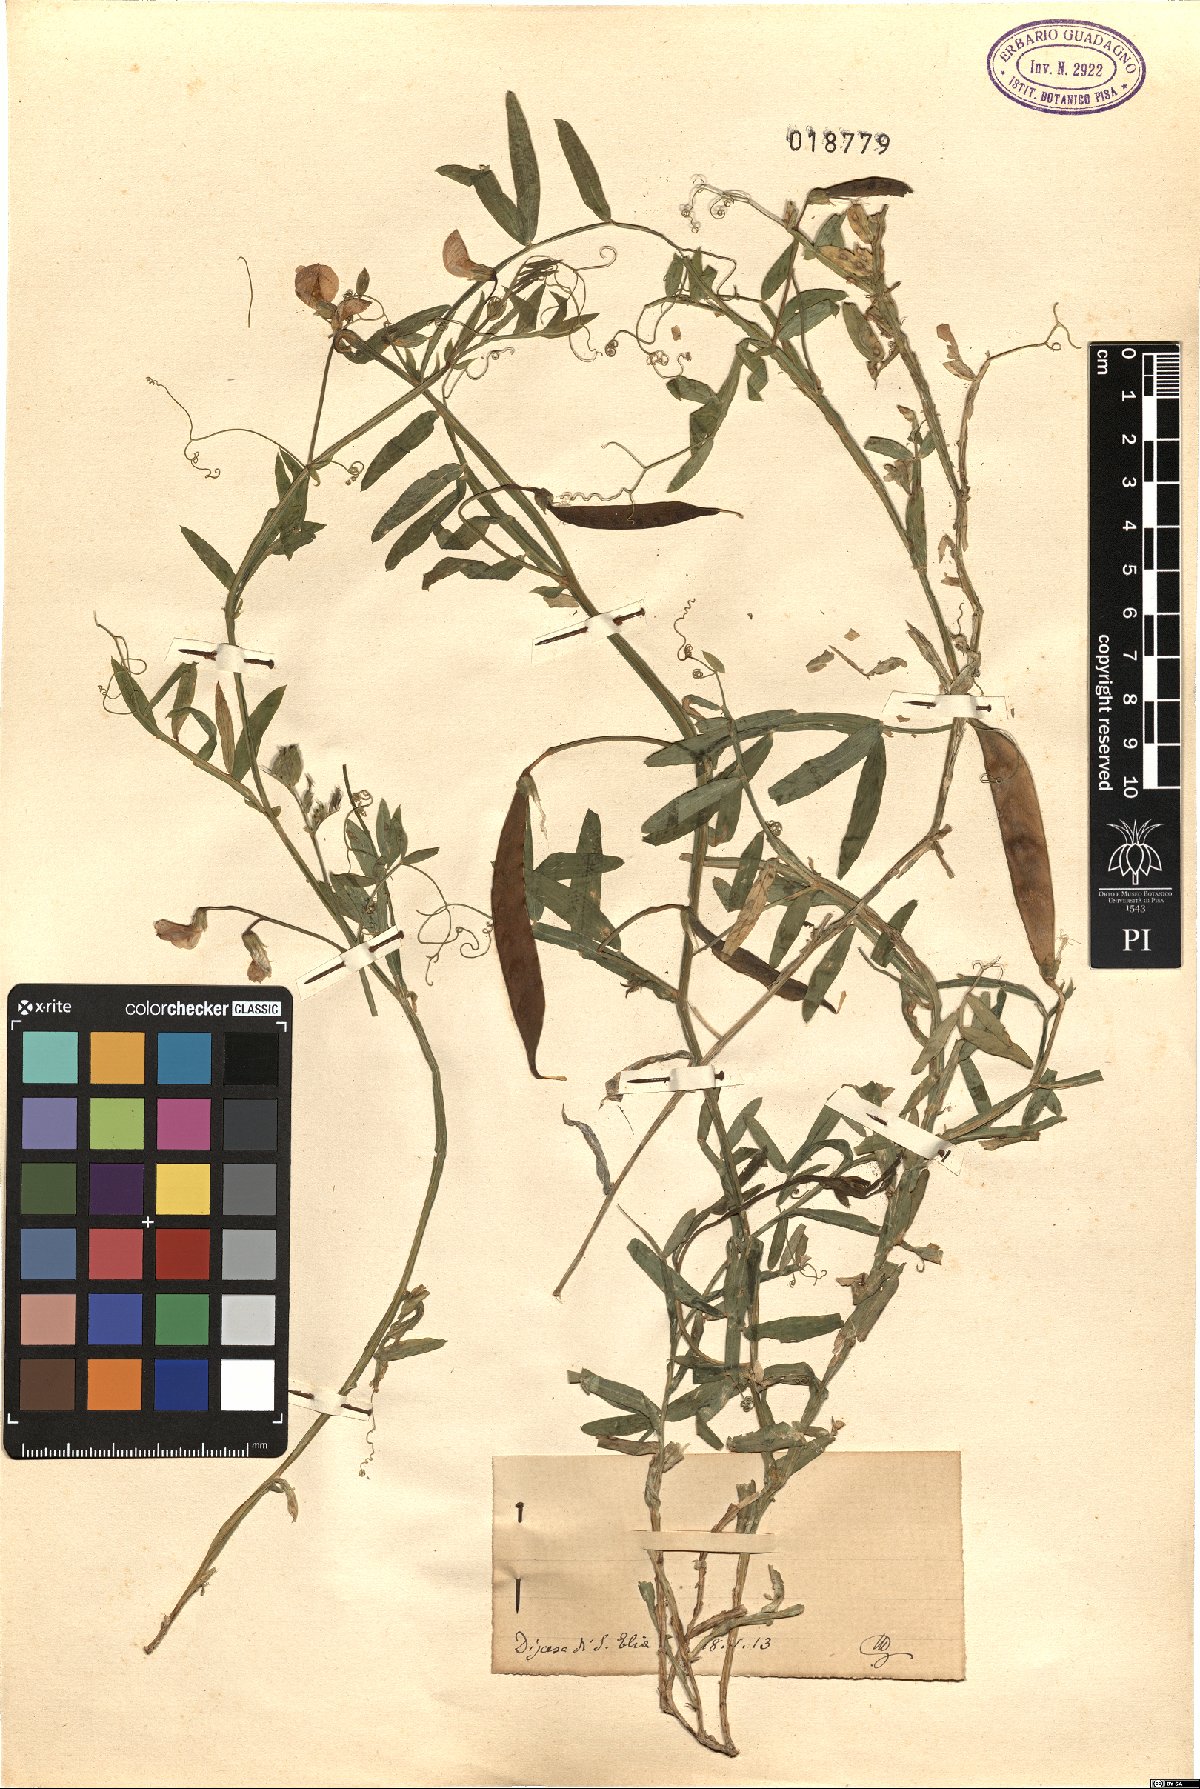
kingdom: Plantae
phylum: Tracheophyta
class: Magnoliopsida
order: Fabales
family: Fabaceae
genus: Lathyrus
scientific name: Lathyrus
